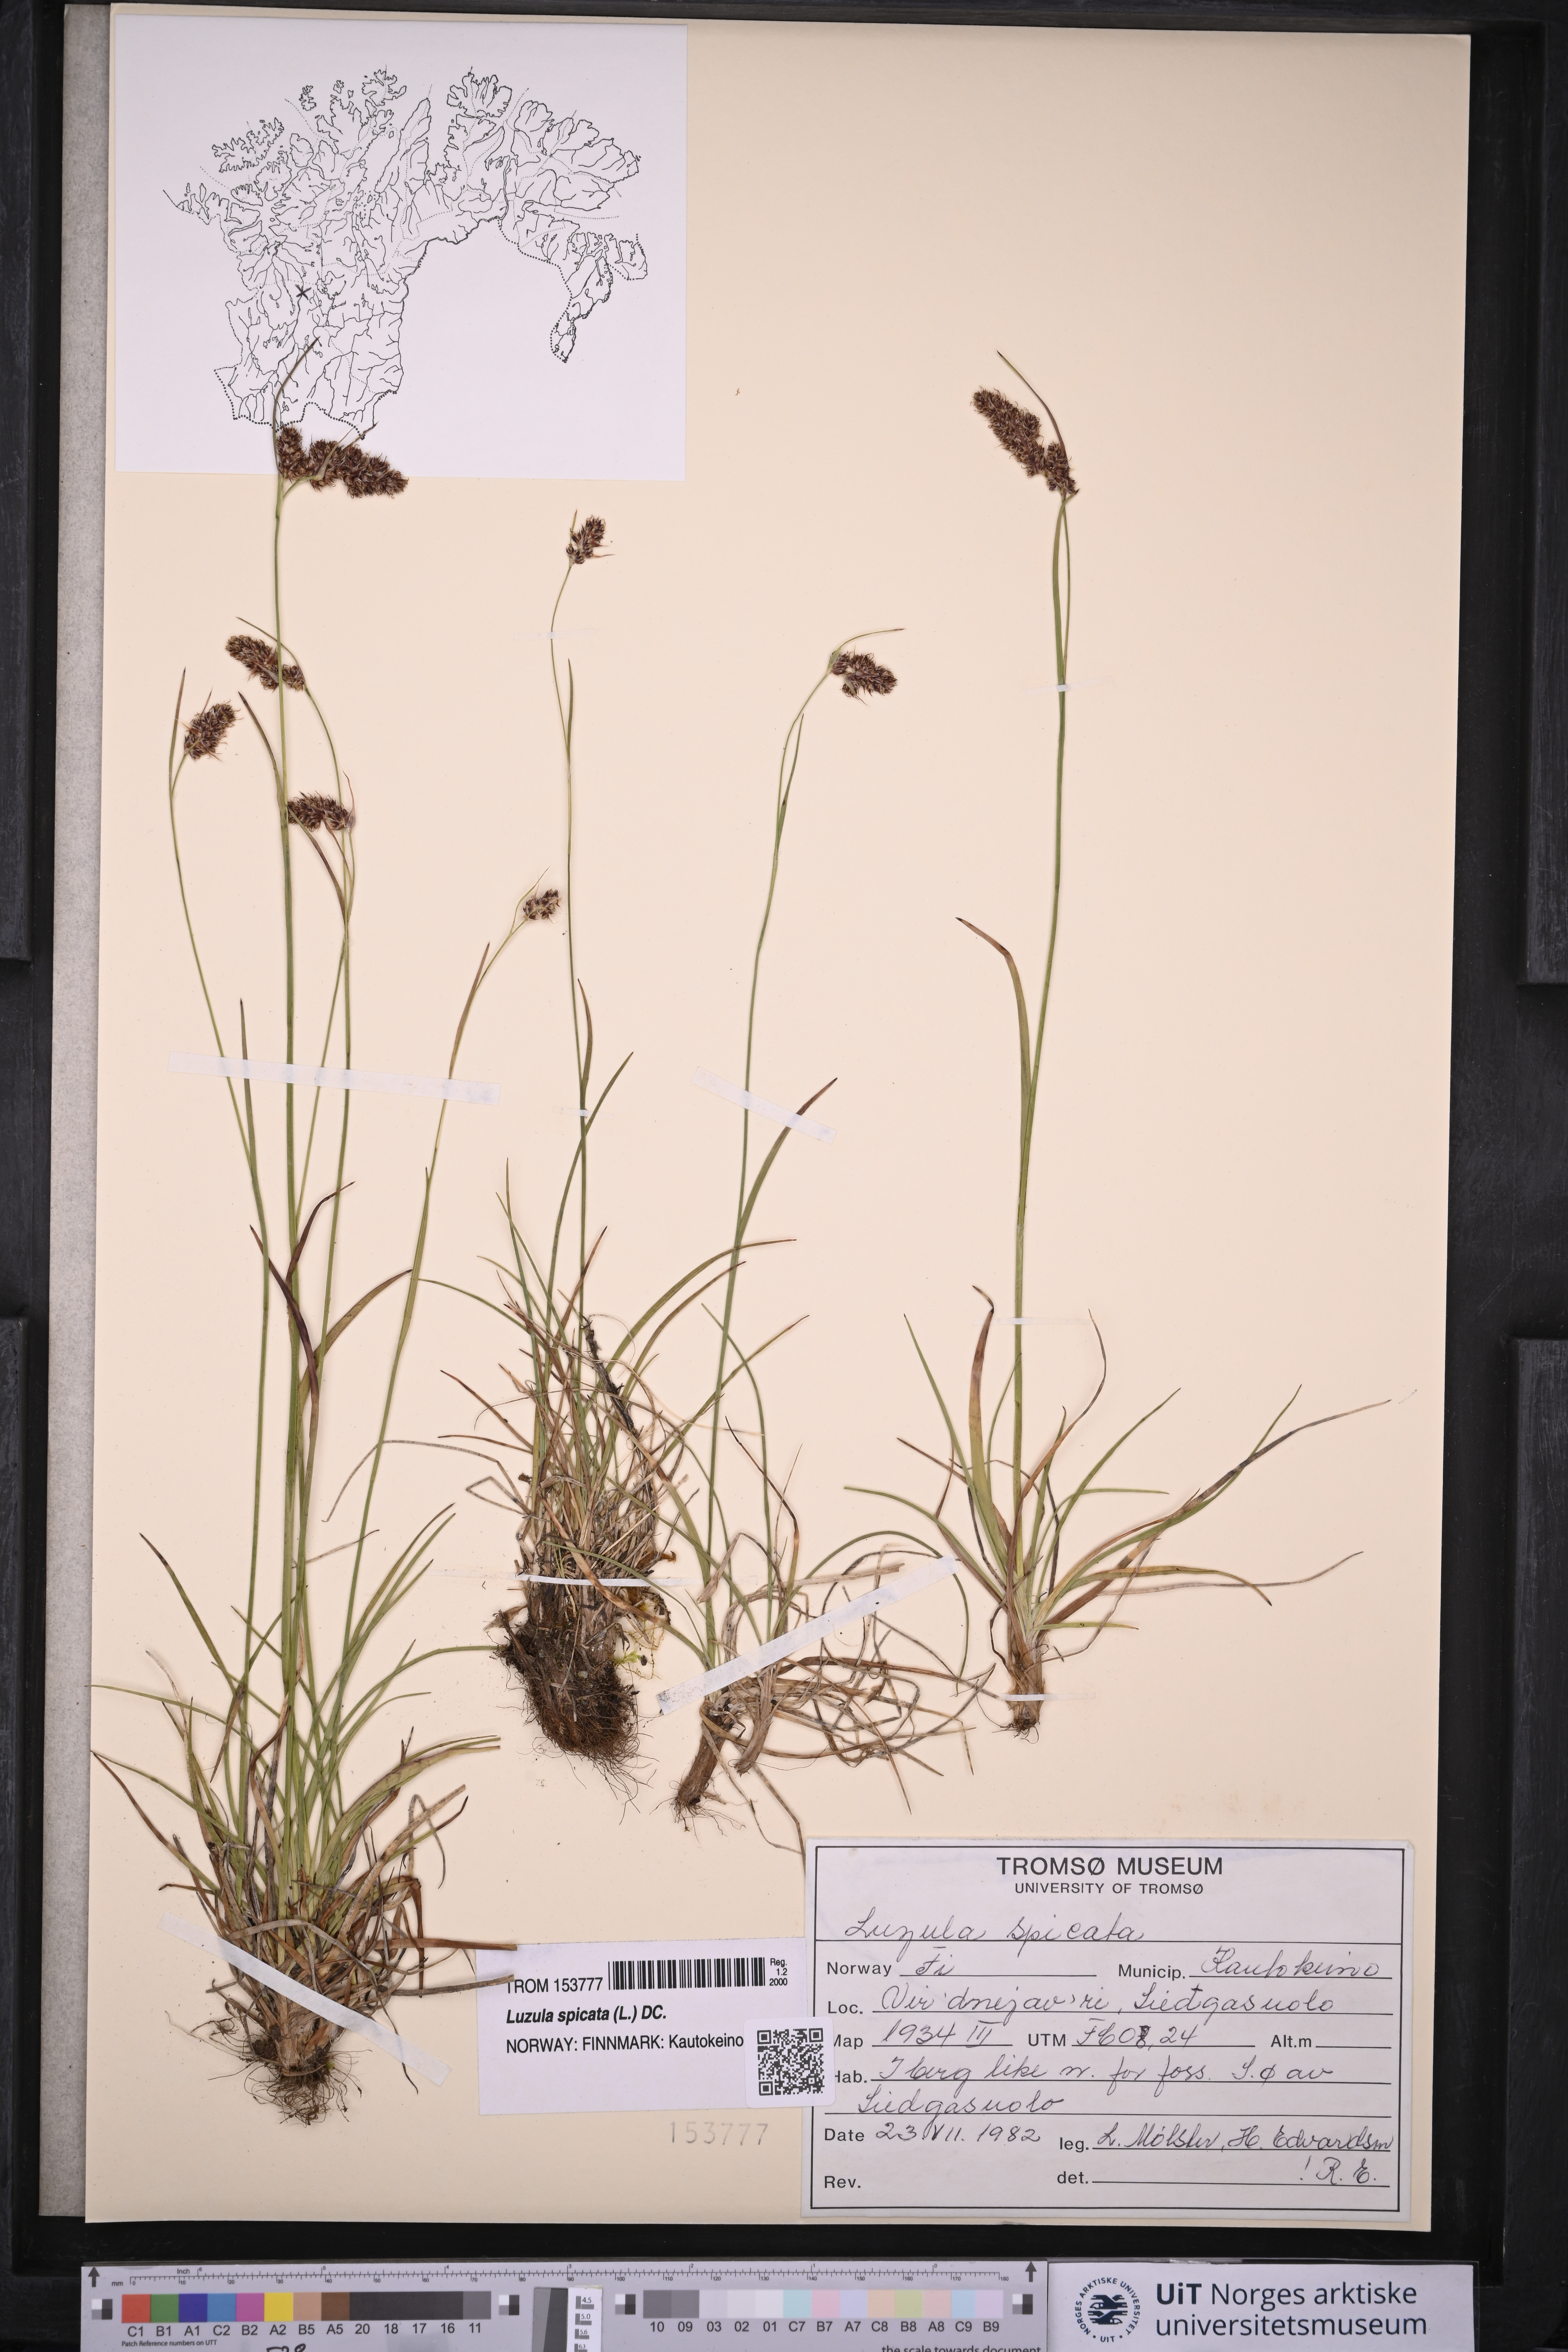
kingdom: Plantae
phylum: Tracheophyta
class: Liliopsida
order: Poales
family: Juncaceae
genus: Luzula
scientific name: Luzula spicata
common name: Spiked wood-rush
